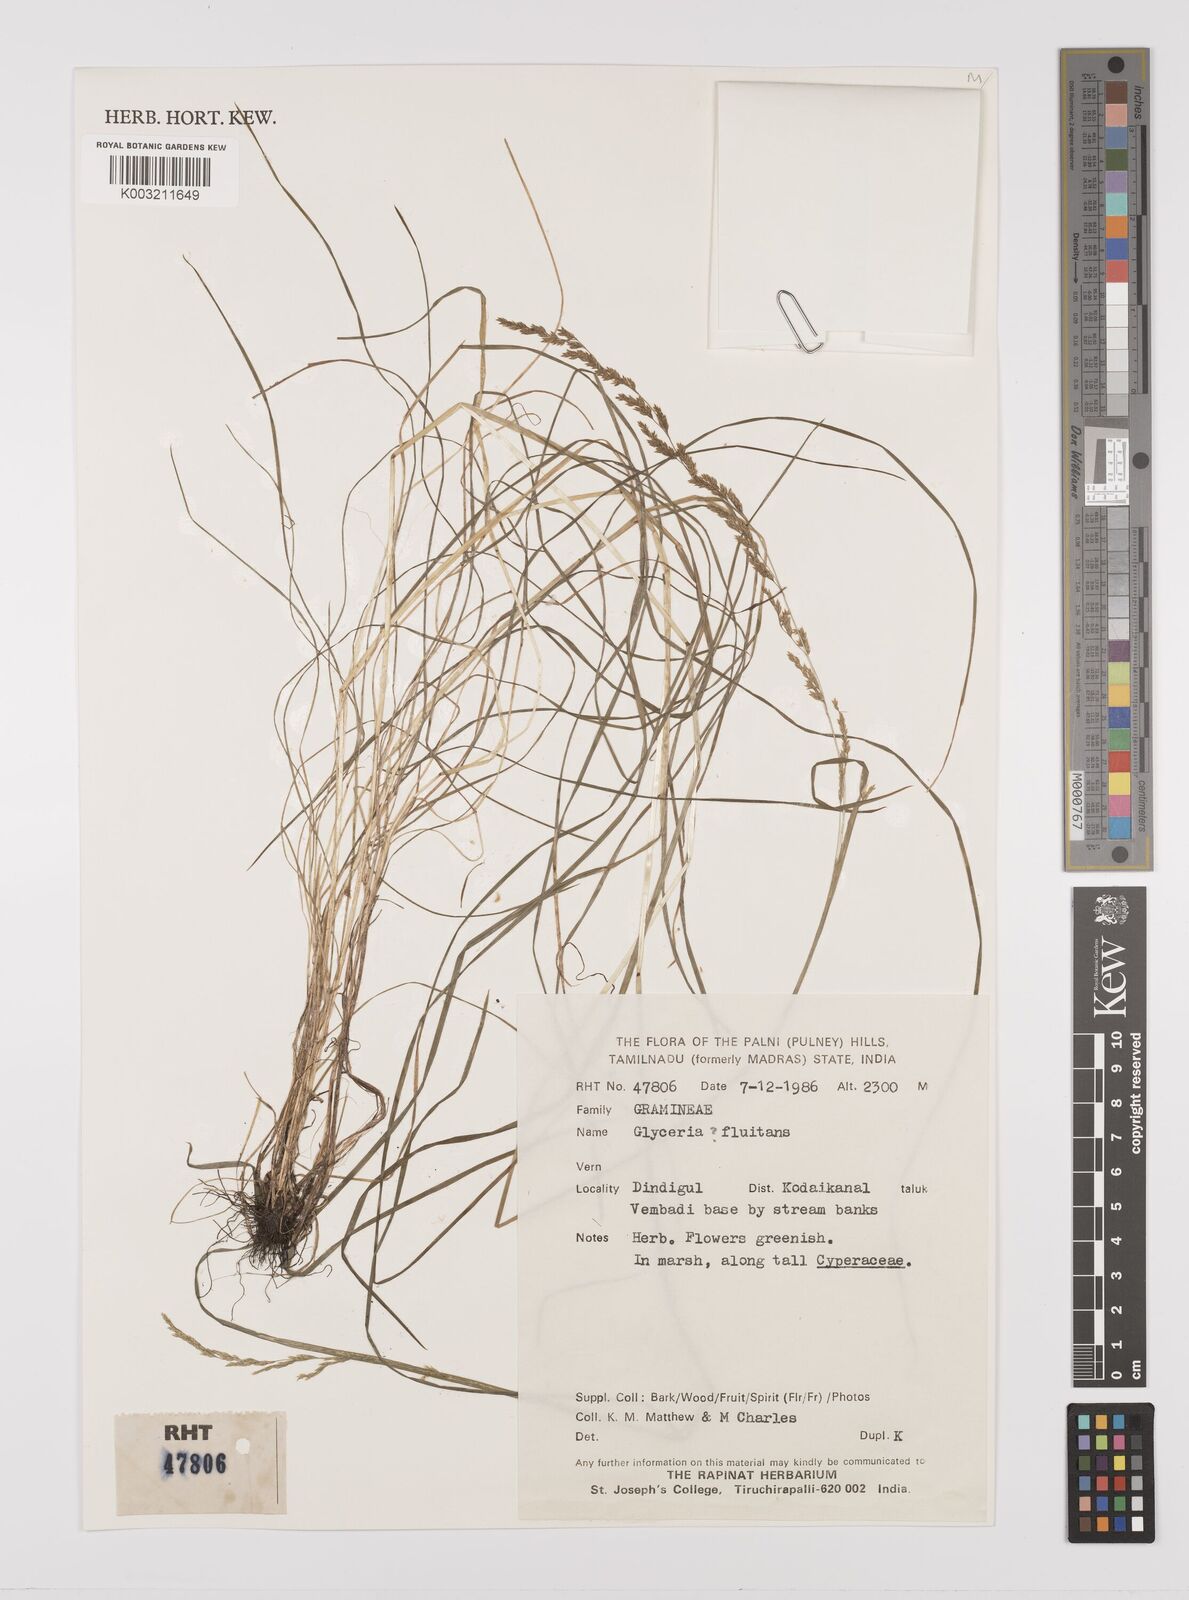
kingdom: Plantae
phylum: Tracheophyta
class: Liliopsida
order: Poales
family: Poaceae
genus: Glyceria
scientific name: Glyceria fluitans
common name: Floating sweet-grass
